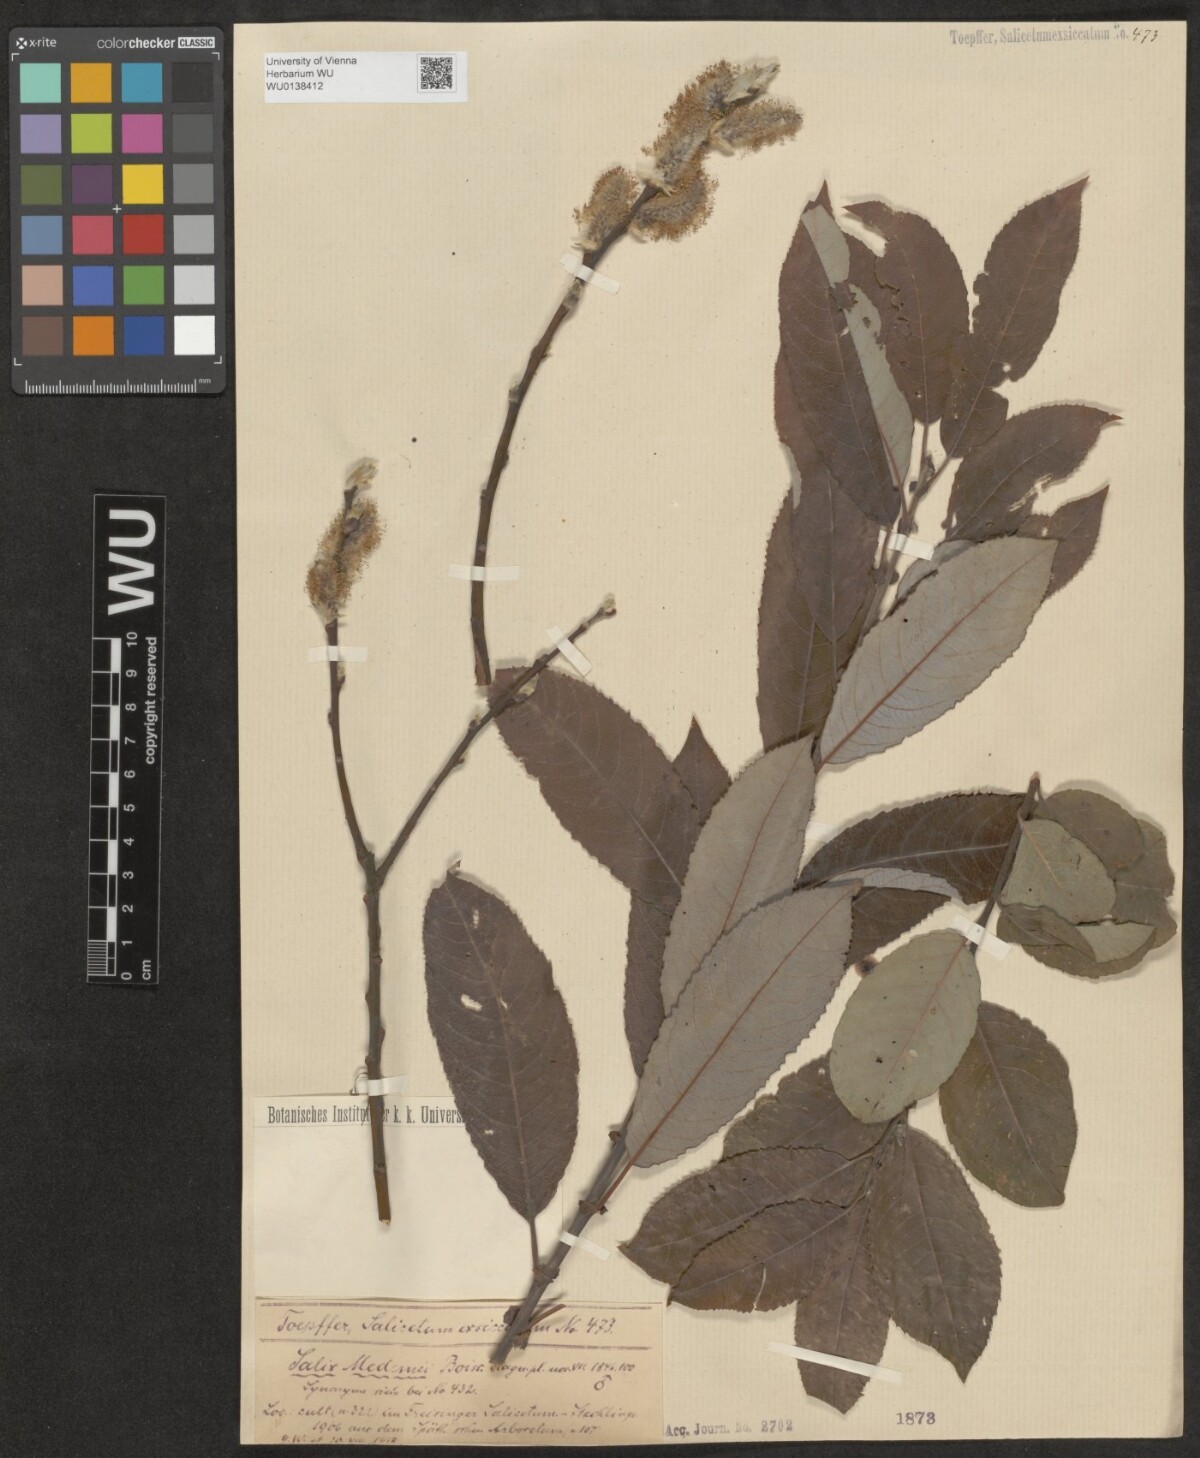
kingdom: Plantae
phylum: Tracheophyta
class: Magnoliopsida
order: Malpighiales
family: Salicaceae
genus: Salix
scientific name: Salix aegyptiaca
